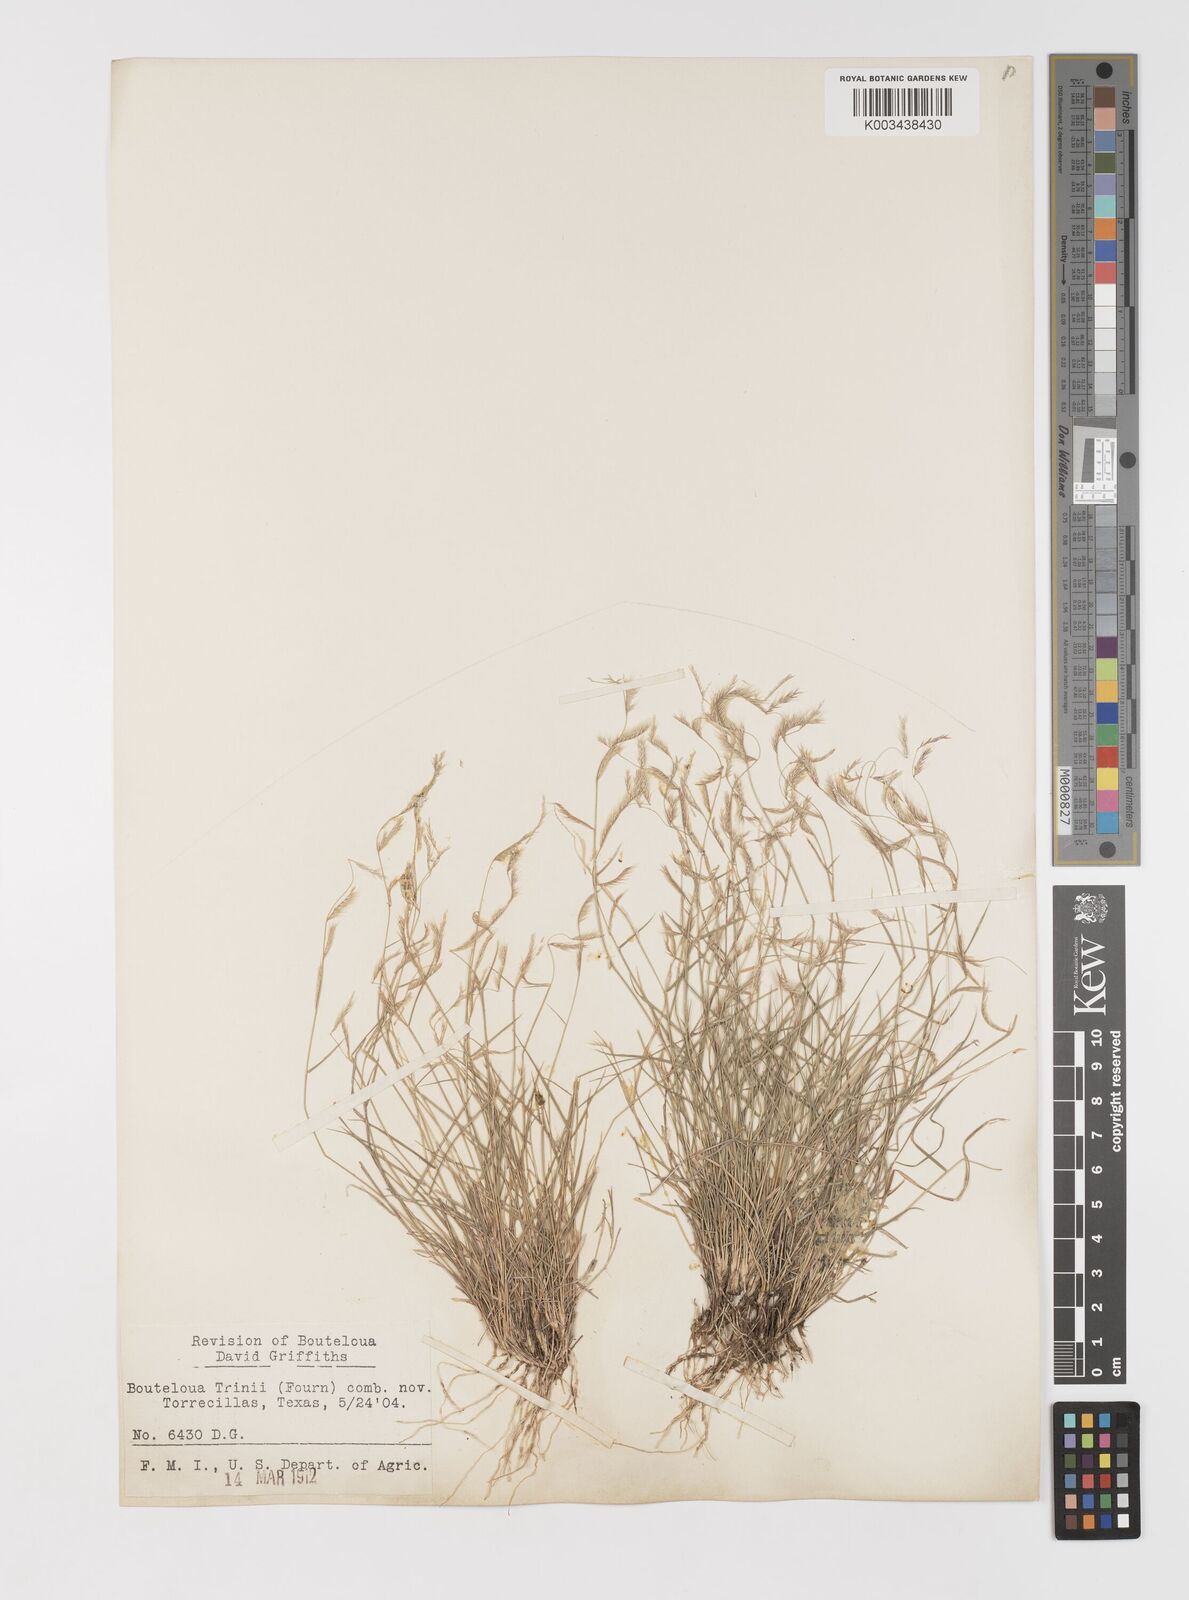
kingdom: Plantae
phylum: Tracheophyta
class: Liliopsida
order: Poales
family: Poaceae
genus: Bouteloua
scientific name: Bouteloua trifida
